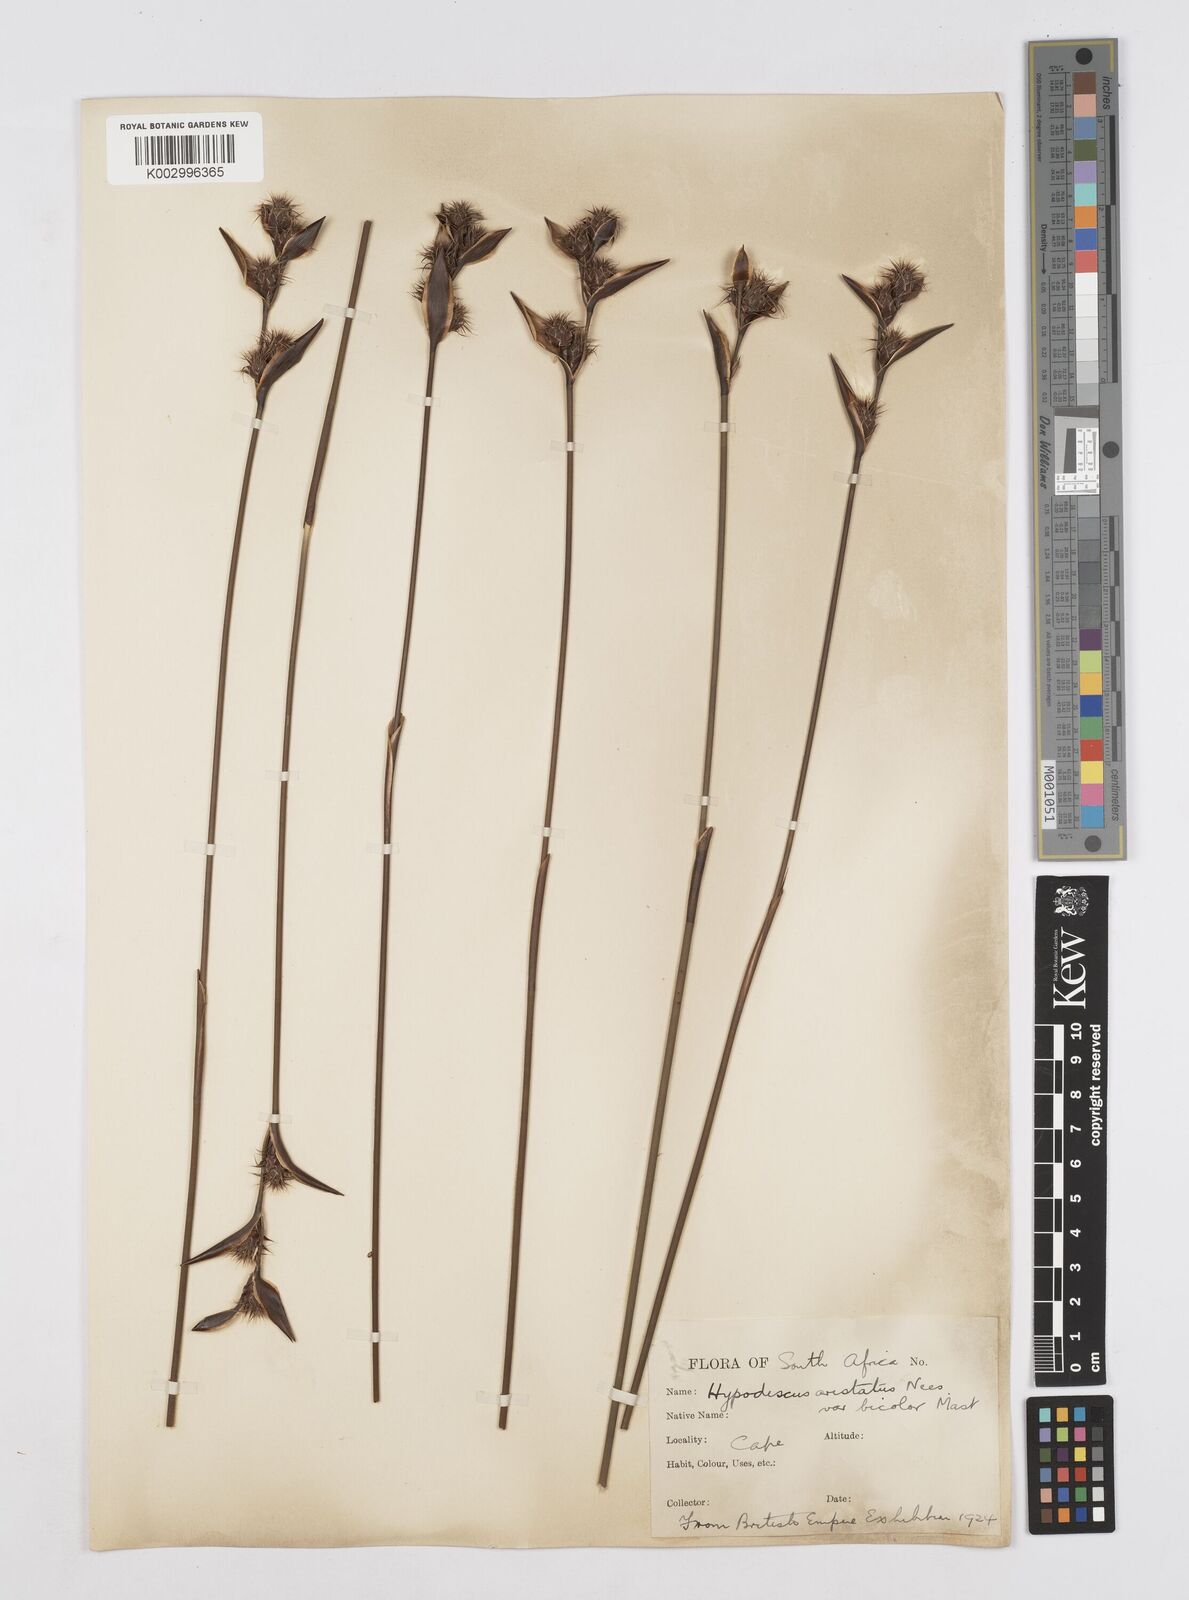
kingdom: Plantae
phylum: Tracheophyta
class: Liliopsida
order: Poales
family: Restionaceae
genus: Hypodiscus
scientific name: Hypodiscus aristatus
